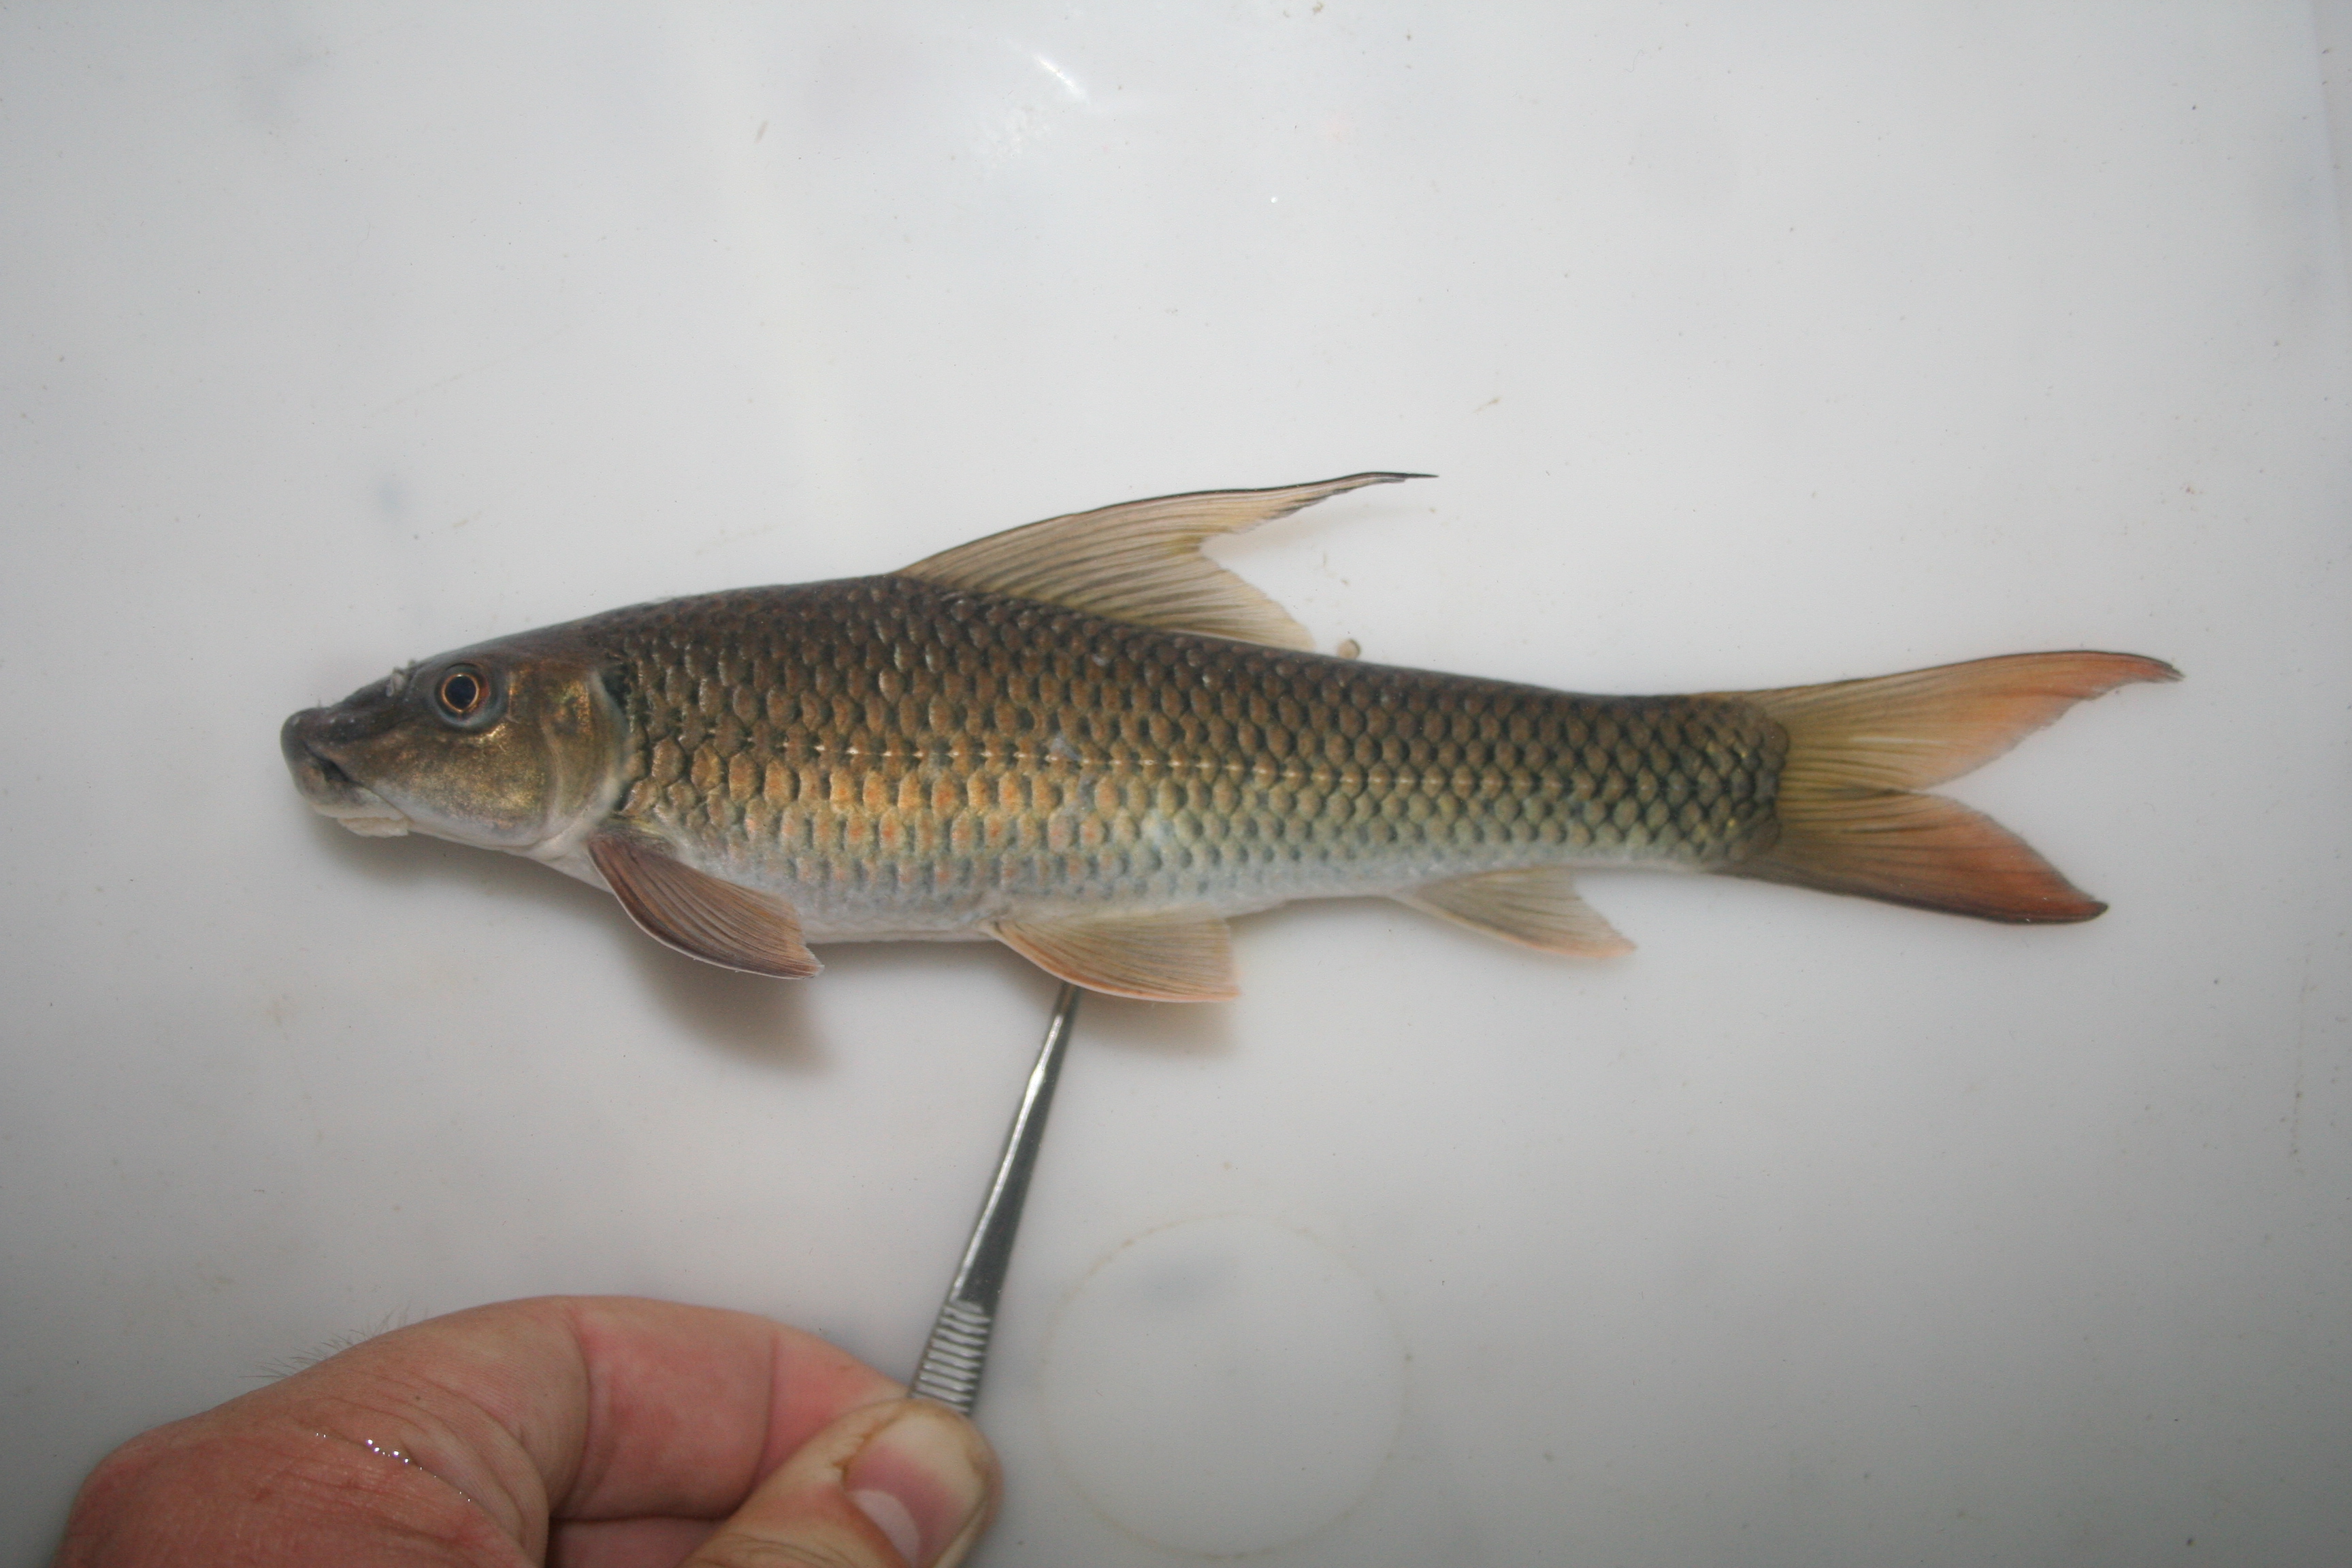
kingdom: Animalia
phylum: Chordata
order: Cypriniformes
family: Cyprinidae
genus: Labeo
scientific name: Labeo
